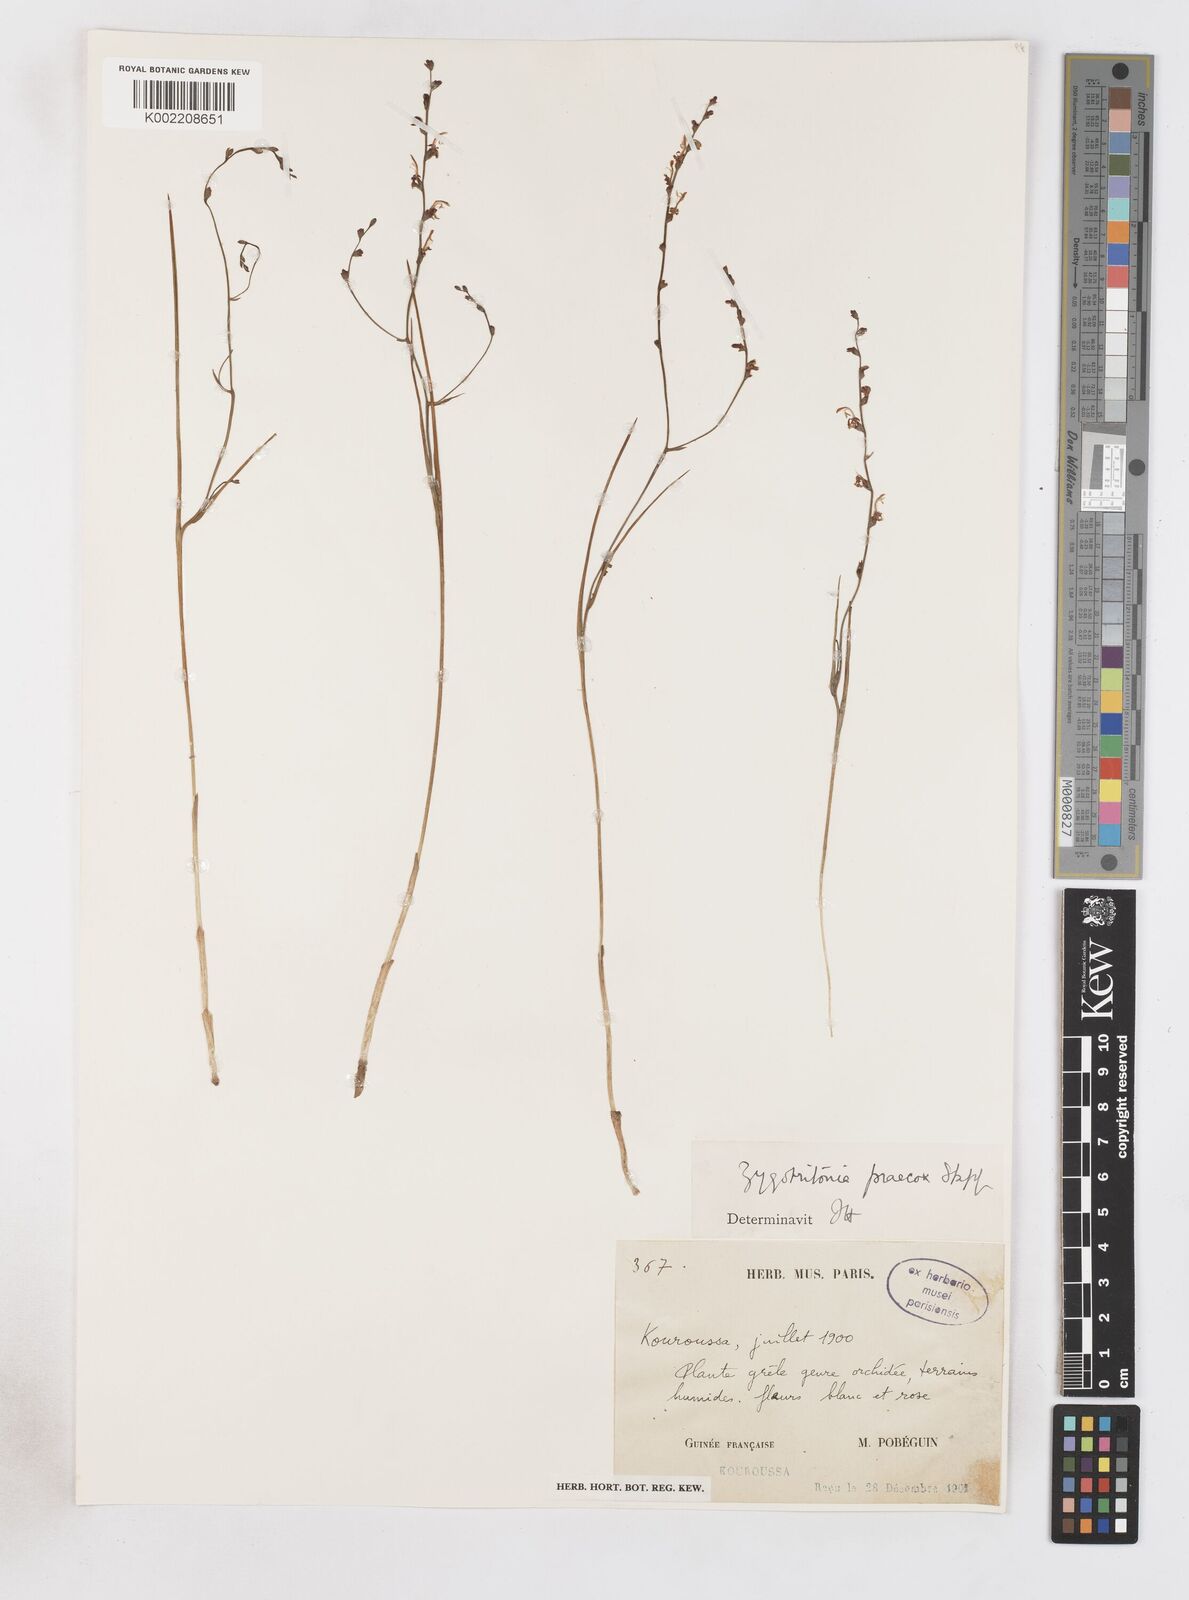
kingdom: Plantae
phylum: Tracheophyta
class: Liliopsida
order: Asparagales
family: Iridaceae
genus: Zygotritonia
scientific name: Zygotritonia praecox
